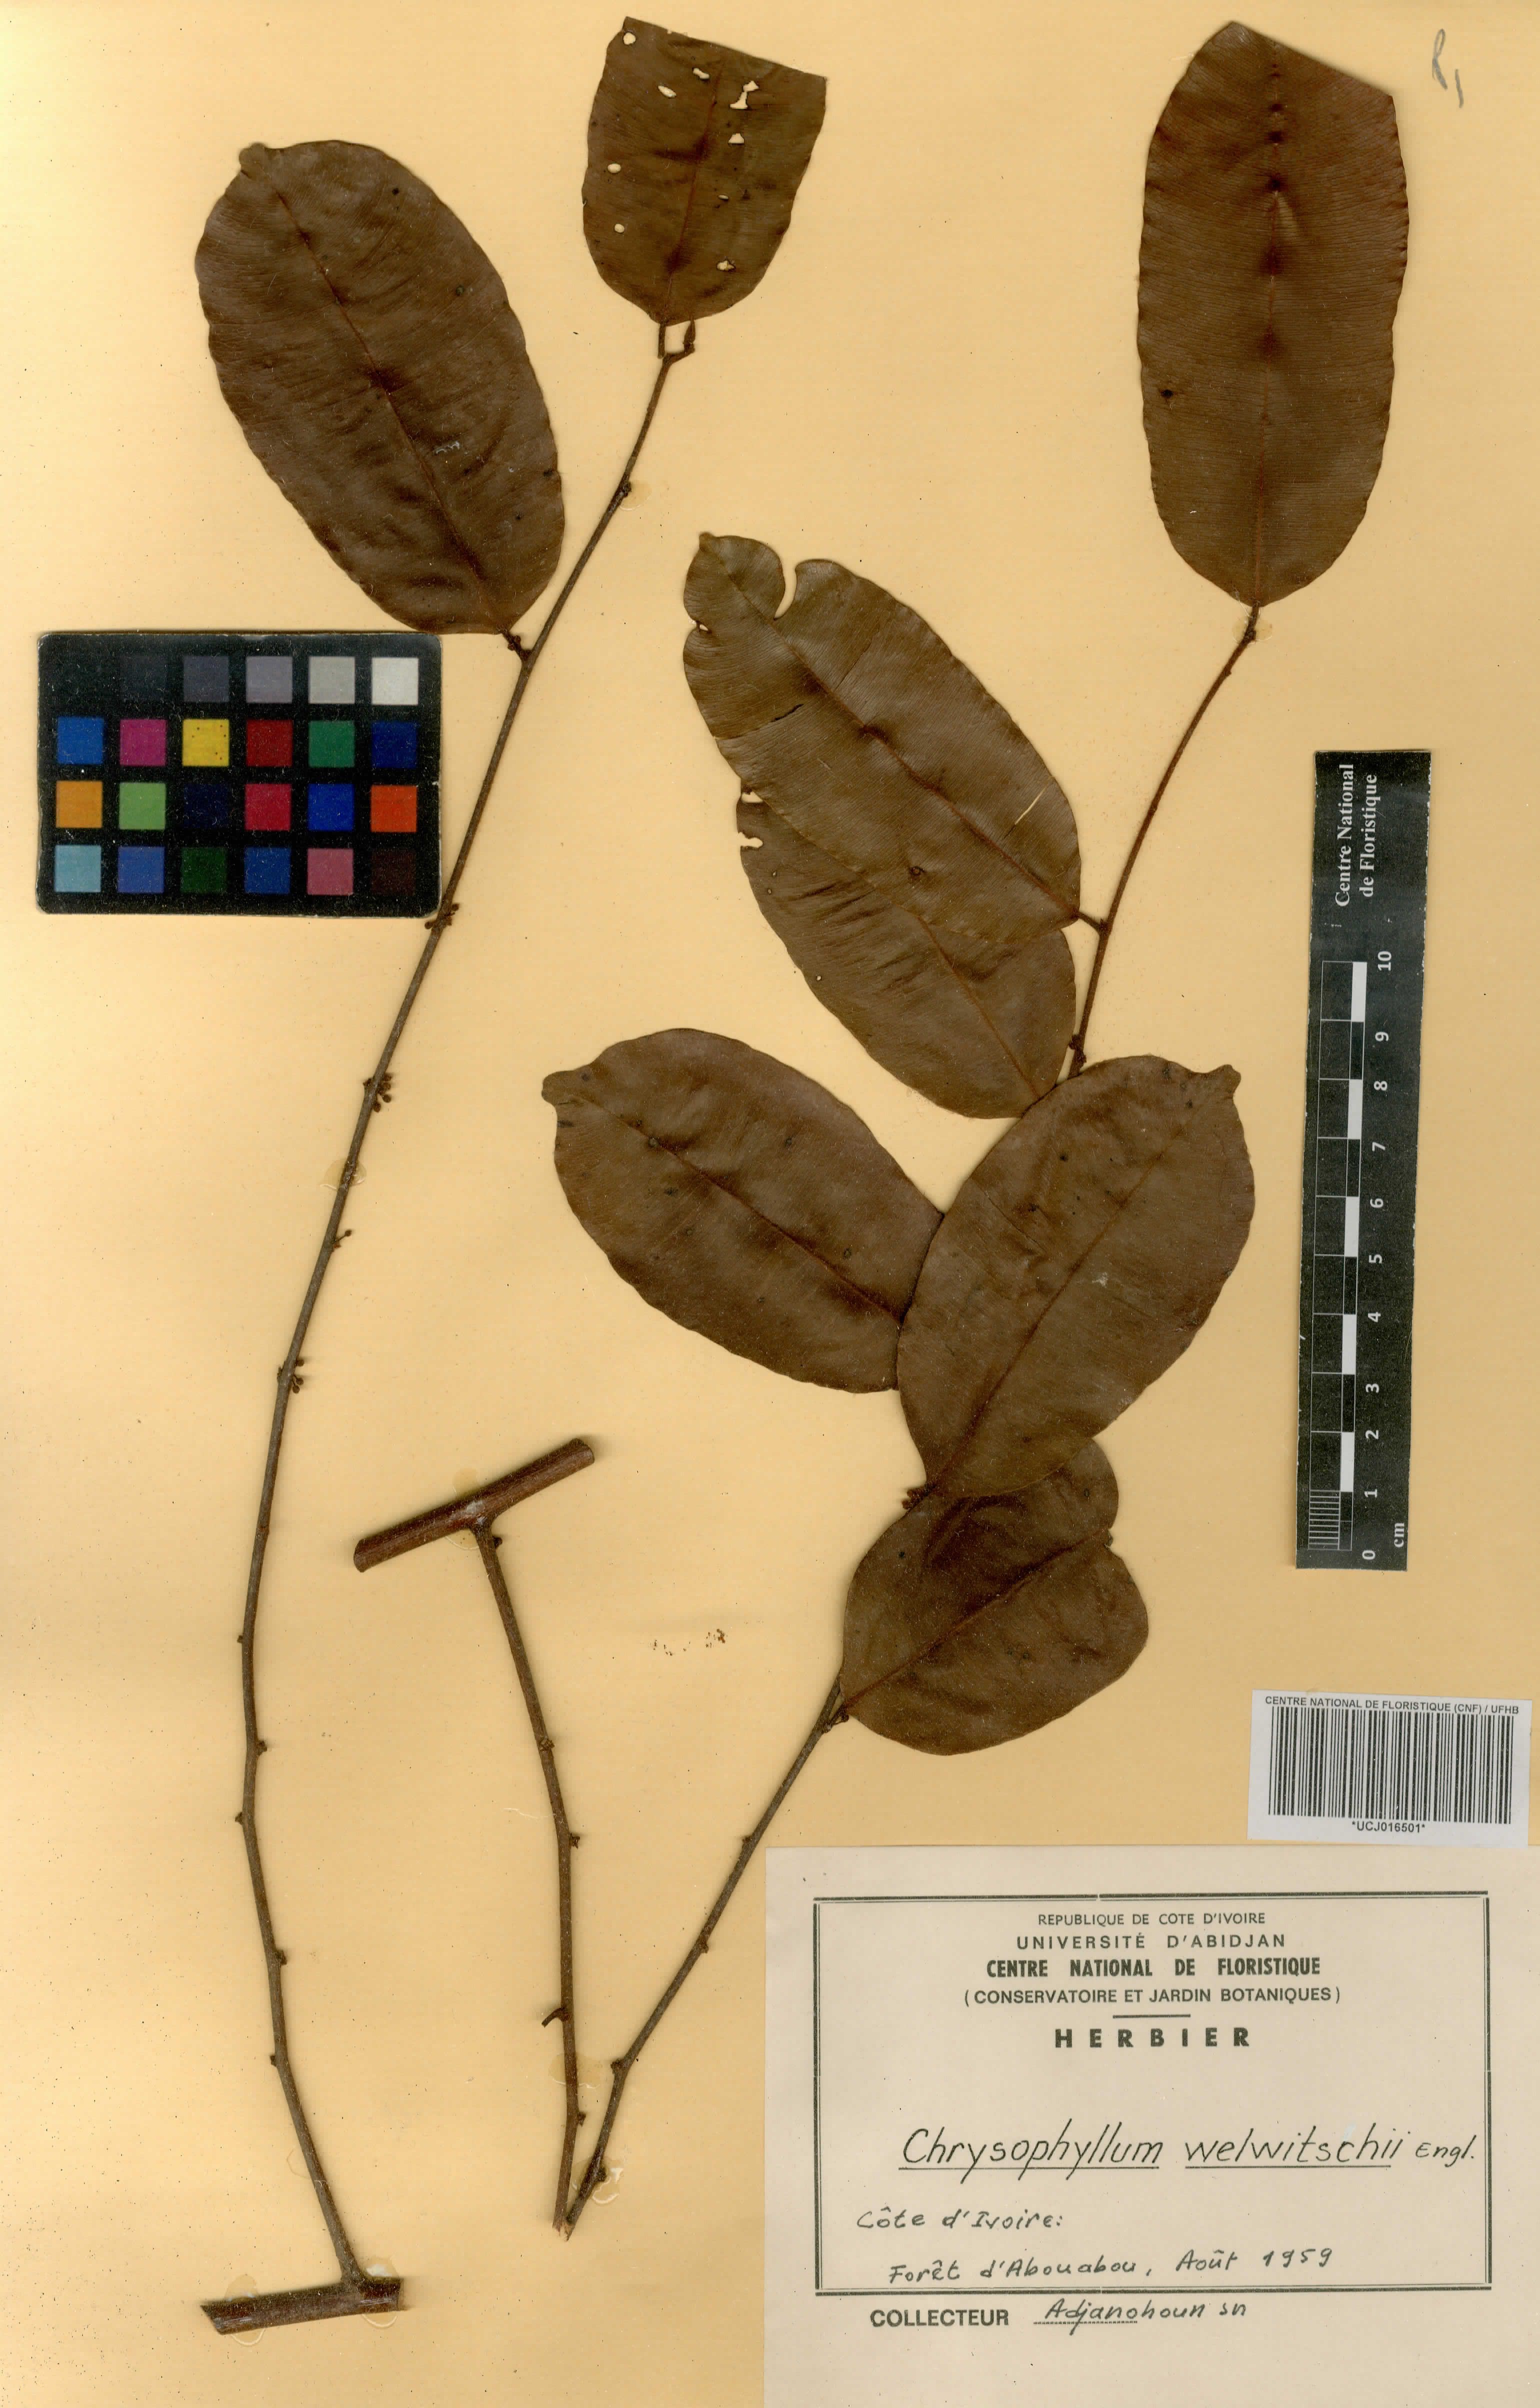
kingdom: Plantae
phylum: Tracheophyta
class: Magnoliopsida
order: Ericales
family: Sapotaceae
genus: Donella
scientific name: Donella welwitschii
